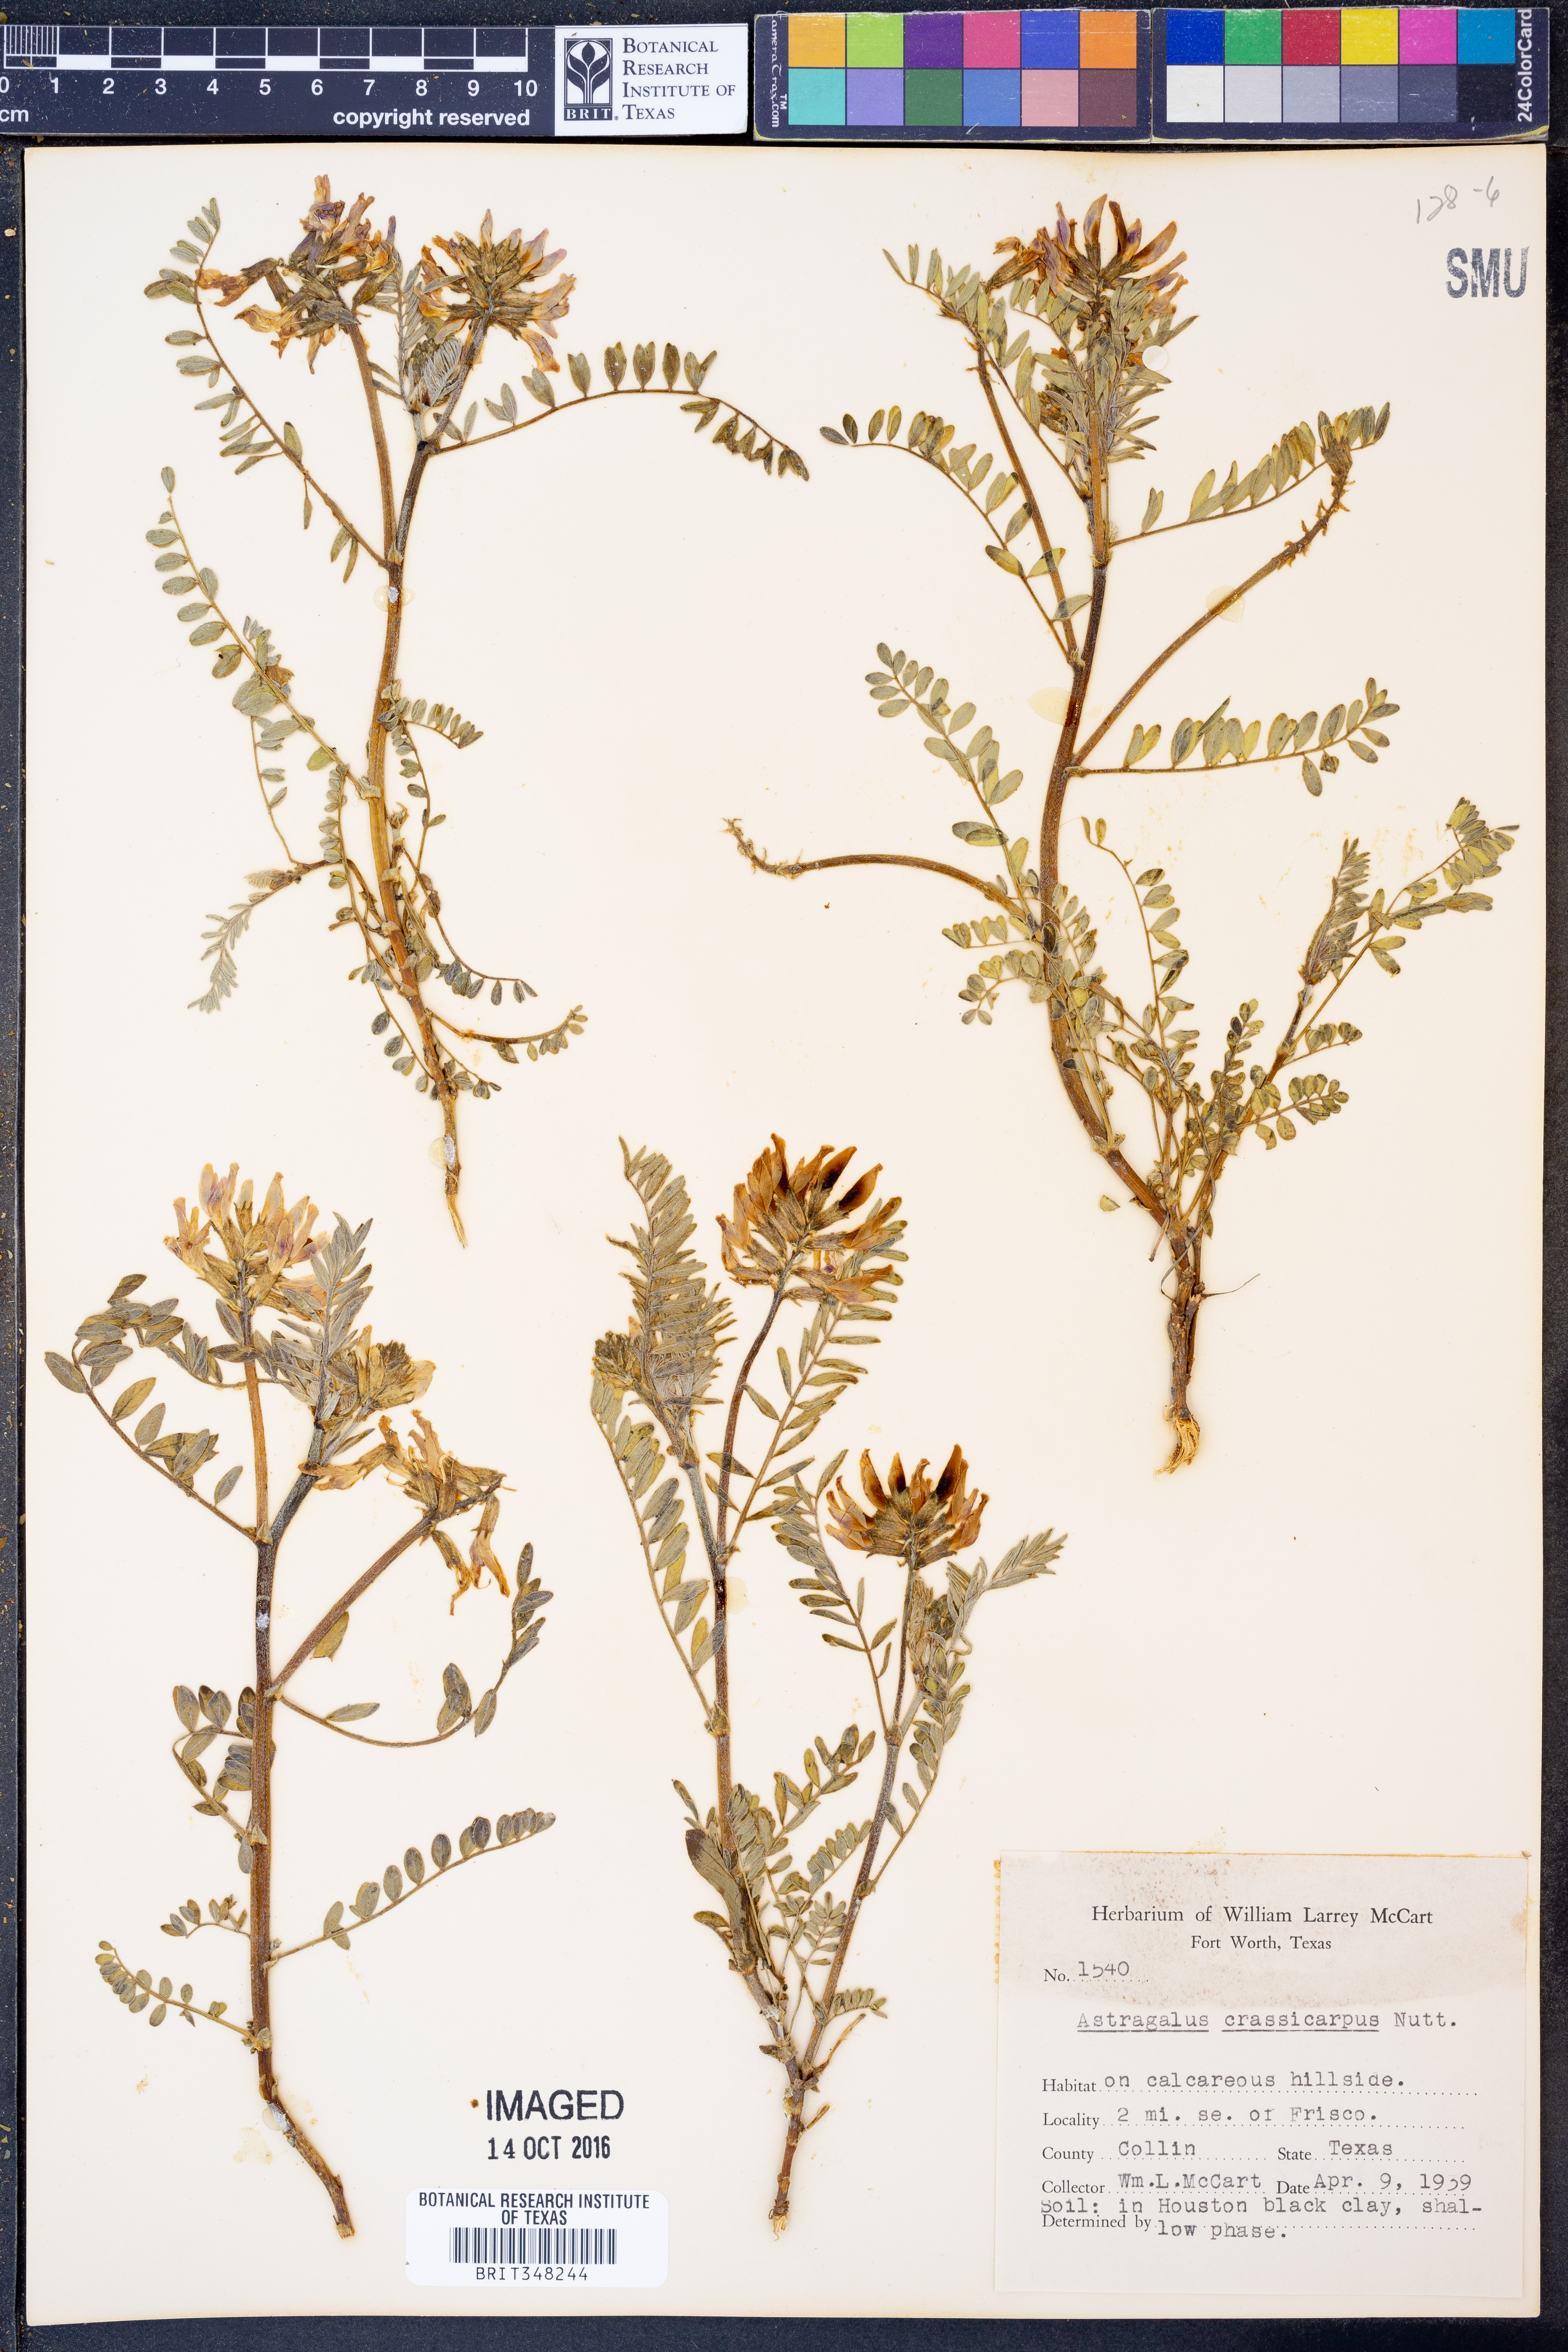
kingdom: Plantae
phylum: Tracheophyta
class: Magnoliopsida
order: Fabales
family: Fabaceae
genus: Astragalus
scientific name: Astragalus crassicarpus
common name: Ground-plum milk-vetch
